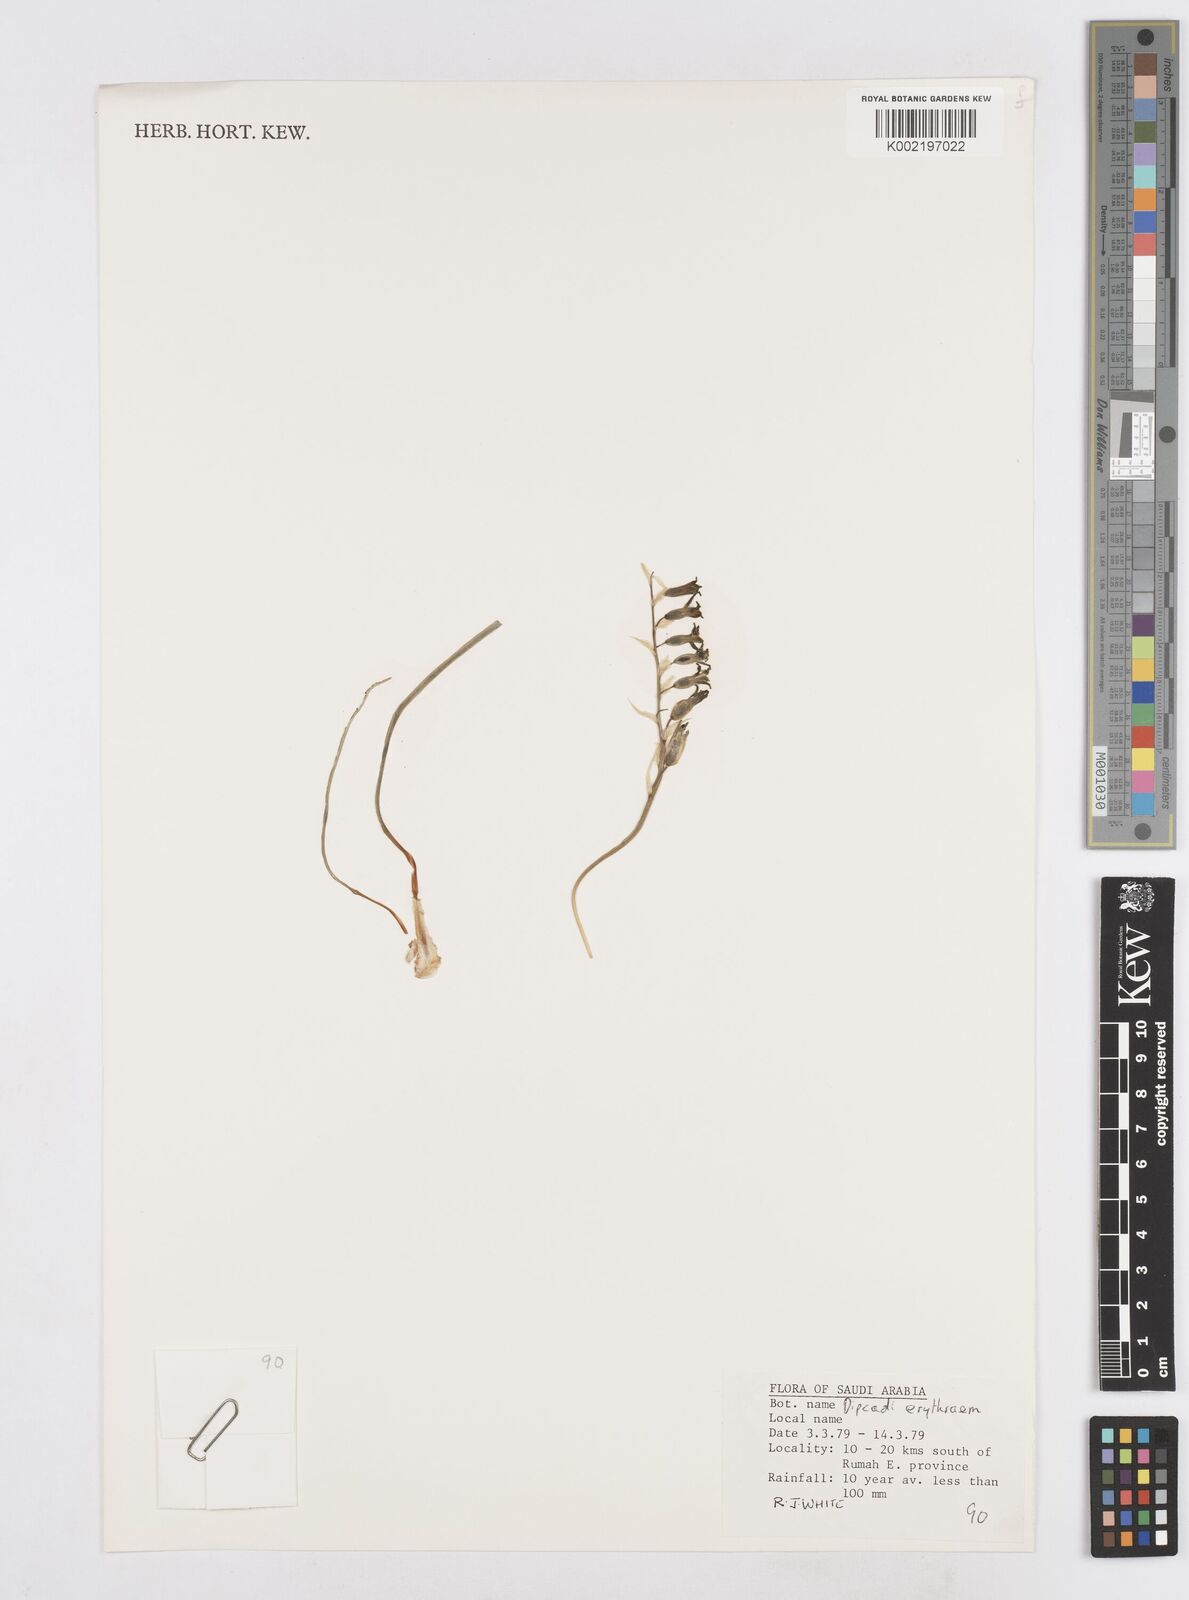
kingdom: Plantae
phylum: Tracheophyta
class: Liliopsida
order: Asparagales
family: Asparagaceae
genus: Dipcadi
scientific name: Dipcadi erythraeum
